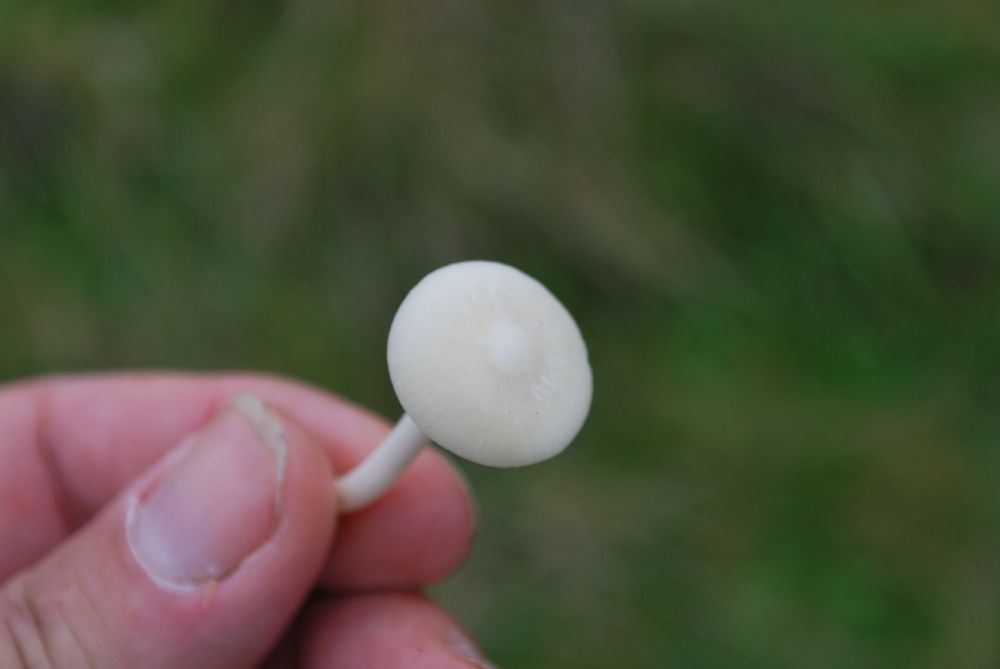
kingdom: Fungi
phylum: Basidiomycota
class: Agaricomycetes
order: Agaricales
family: Hygrophoraceae
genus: Cuphophyllus
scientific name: Cuphophyllus virgineus
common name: snehvid vokshat
